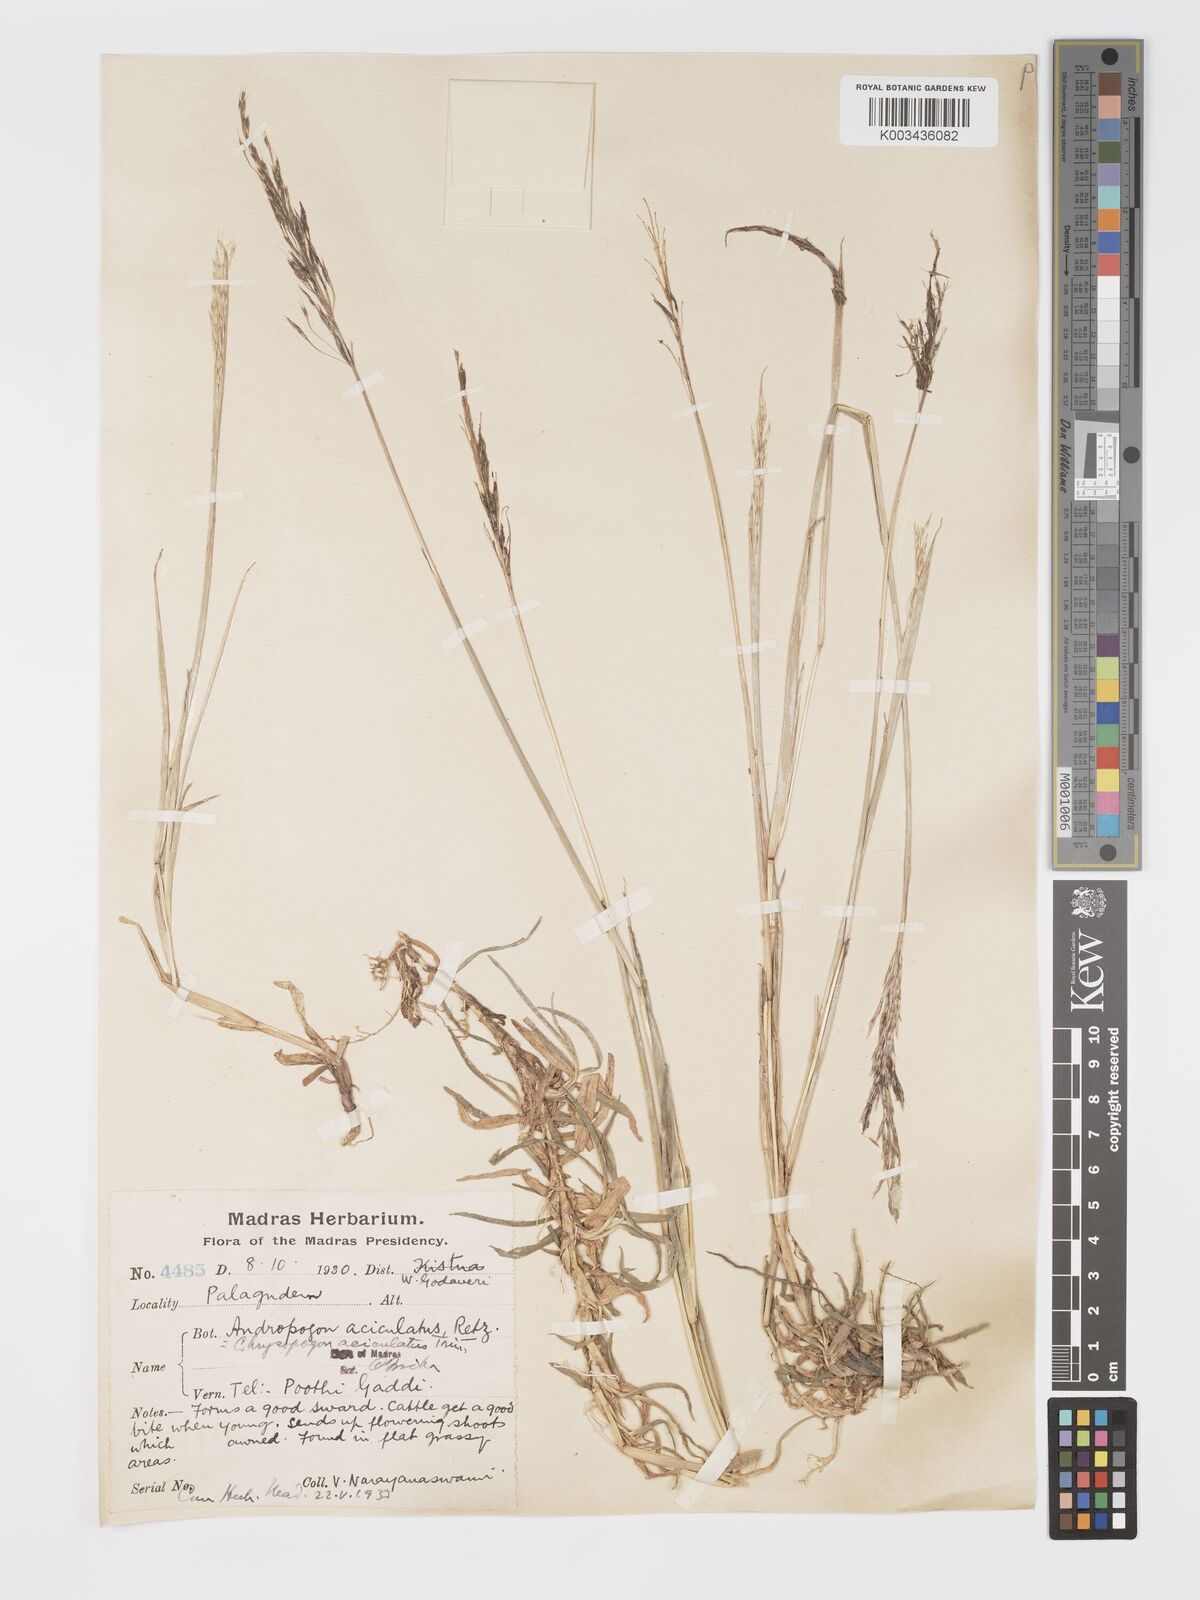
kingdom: Plantae
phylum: Tracheophyta
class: Liliopsida
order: Poales
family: Poaceae
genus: Chrysopogon
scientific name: Chrysopogon aciculatus
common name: Pilipiliula
